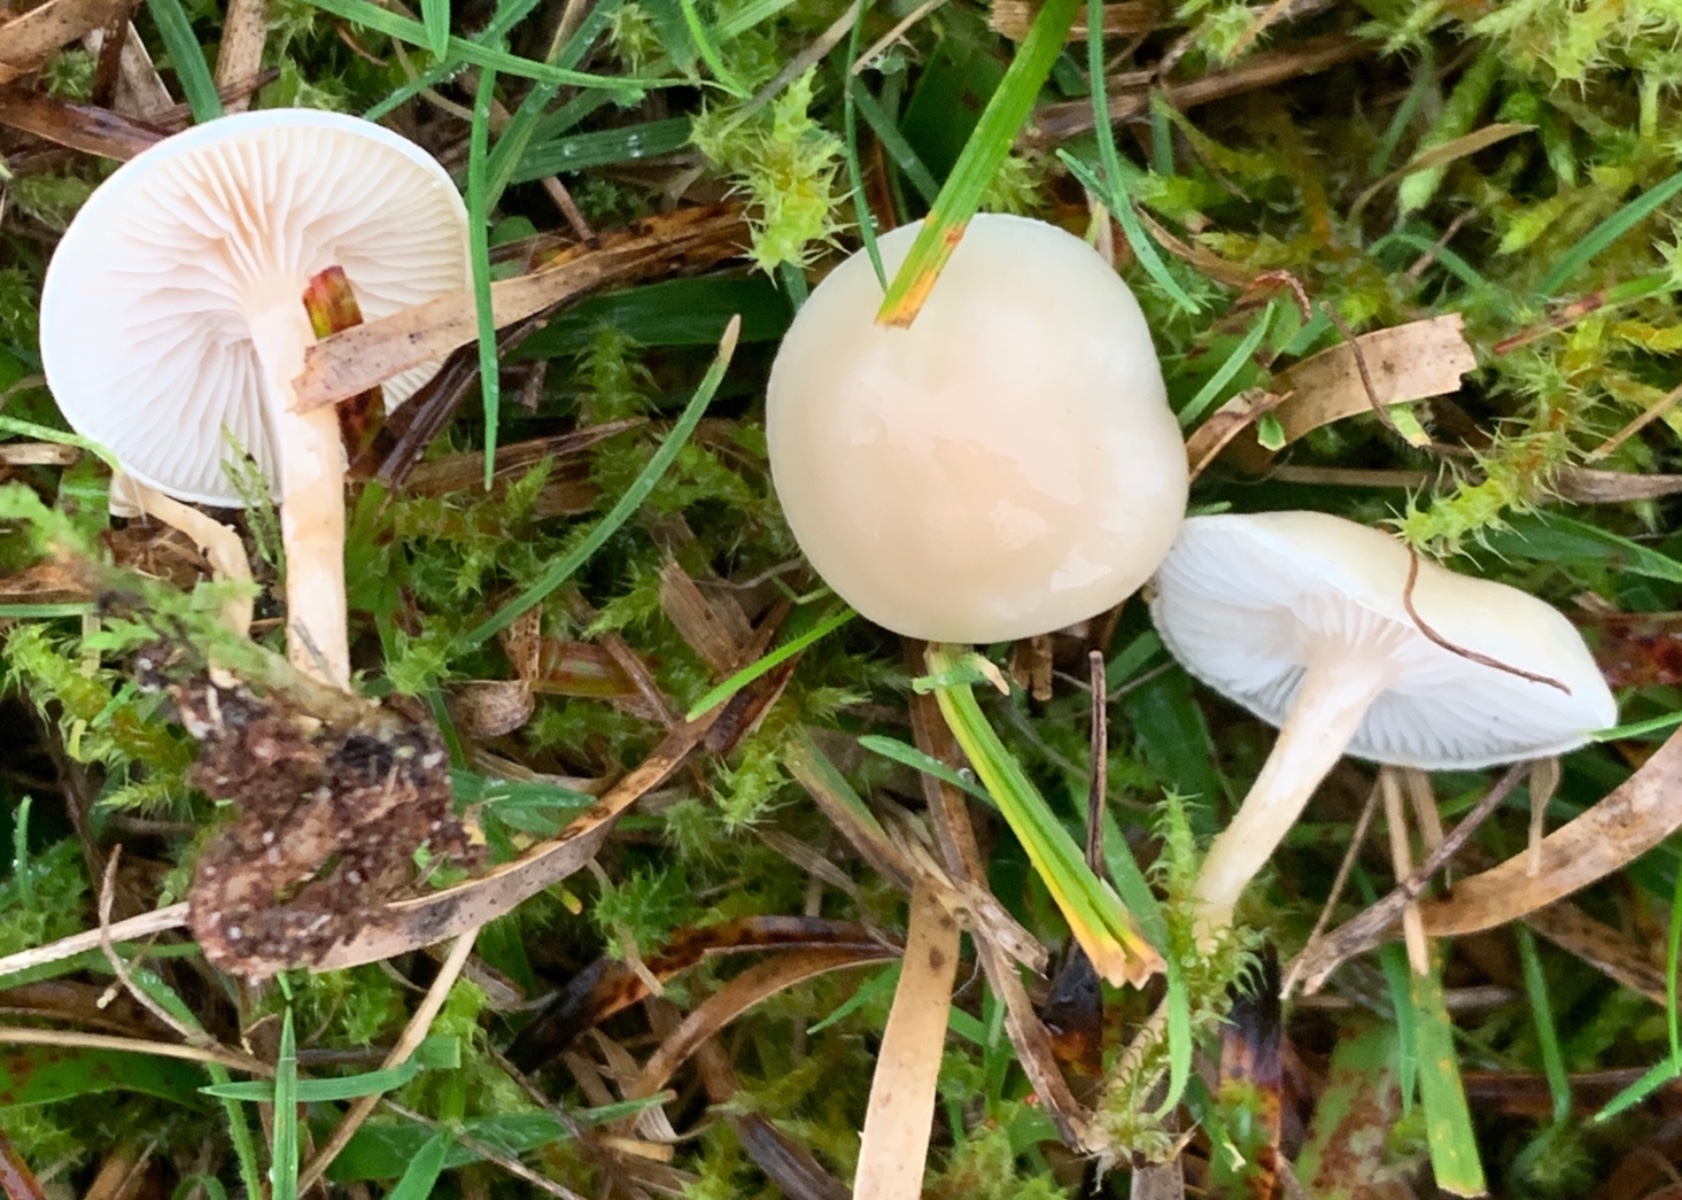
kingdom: Fungi
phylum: Basidiomycota
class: Agaricomycetes
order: Agaricales
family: Hygrophoraceae
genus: Cuphophyllus
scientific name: Cuphophyllus virgineus
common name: snehvid vokshat
